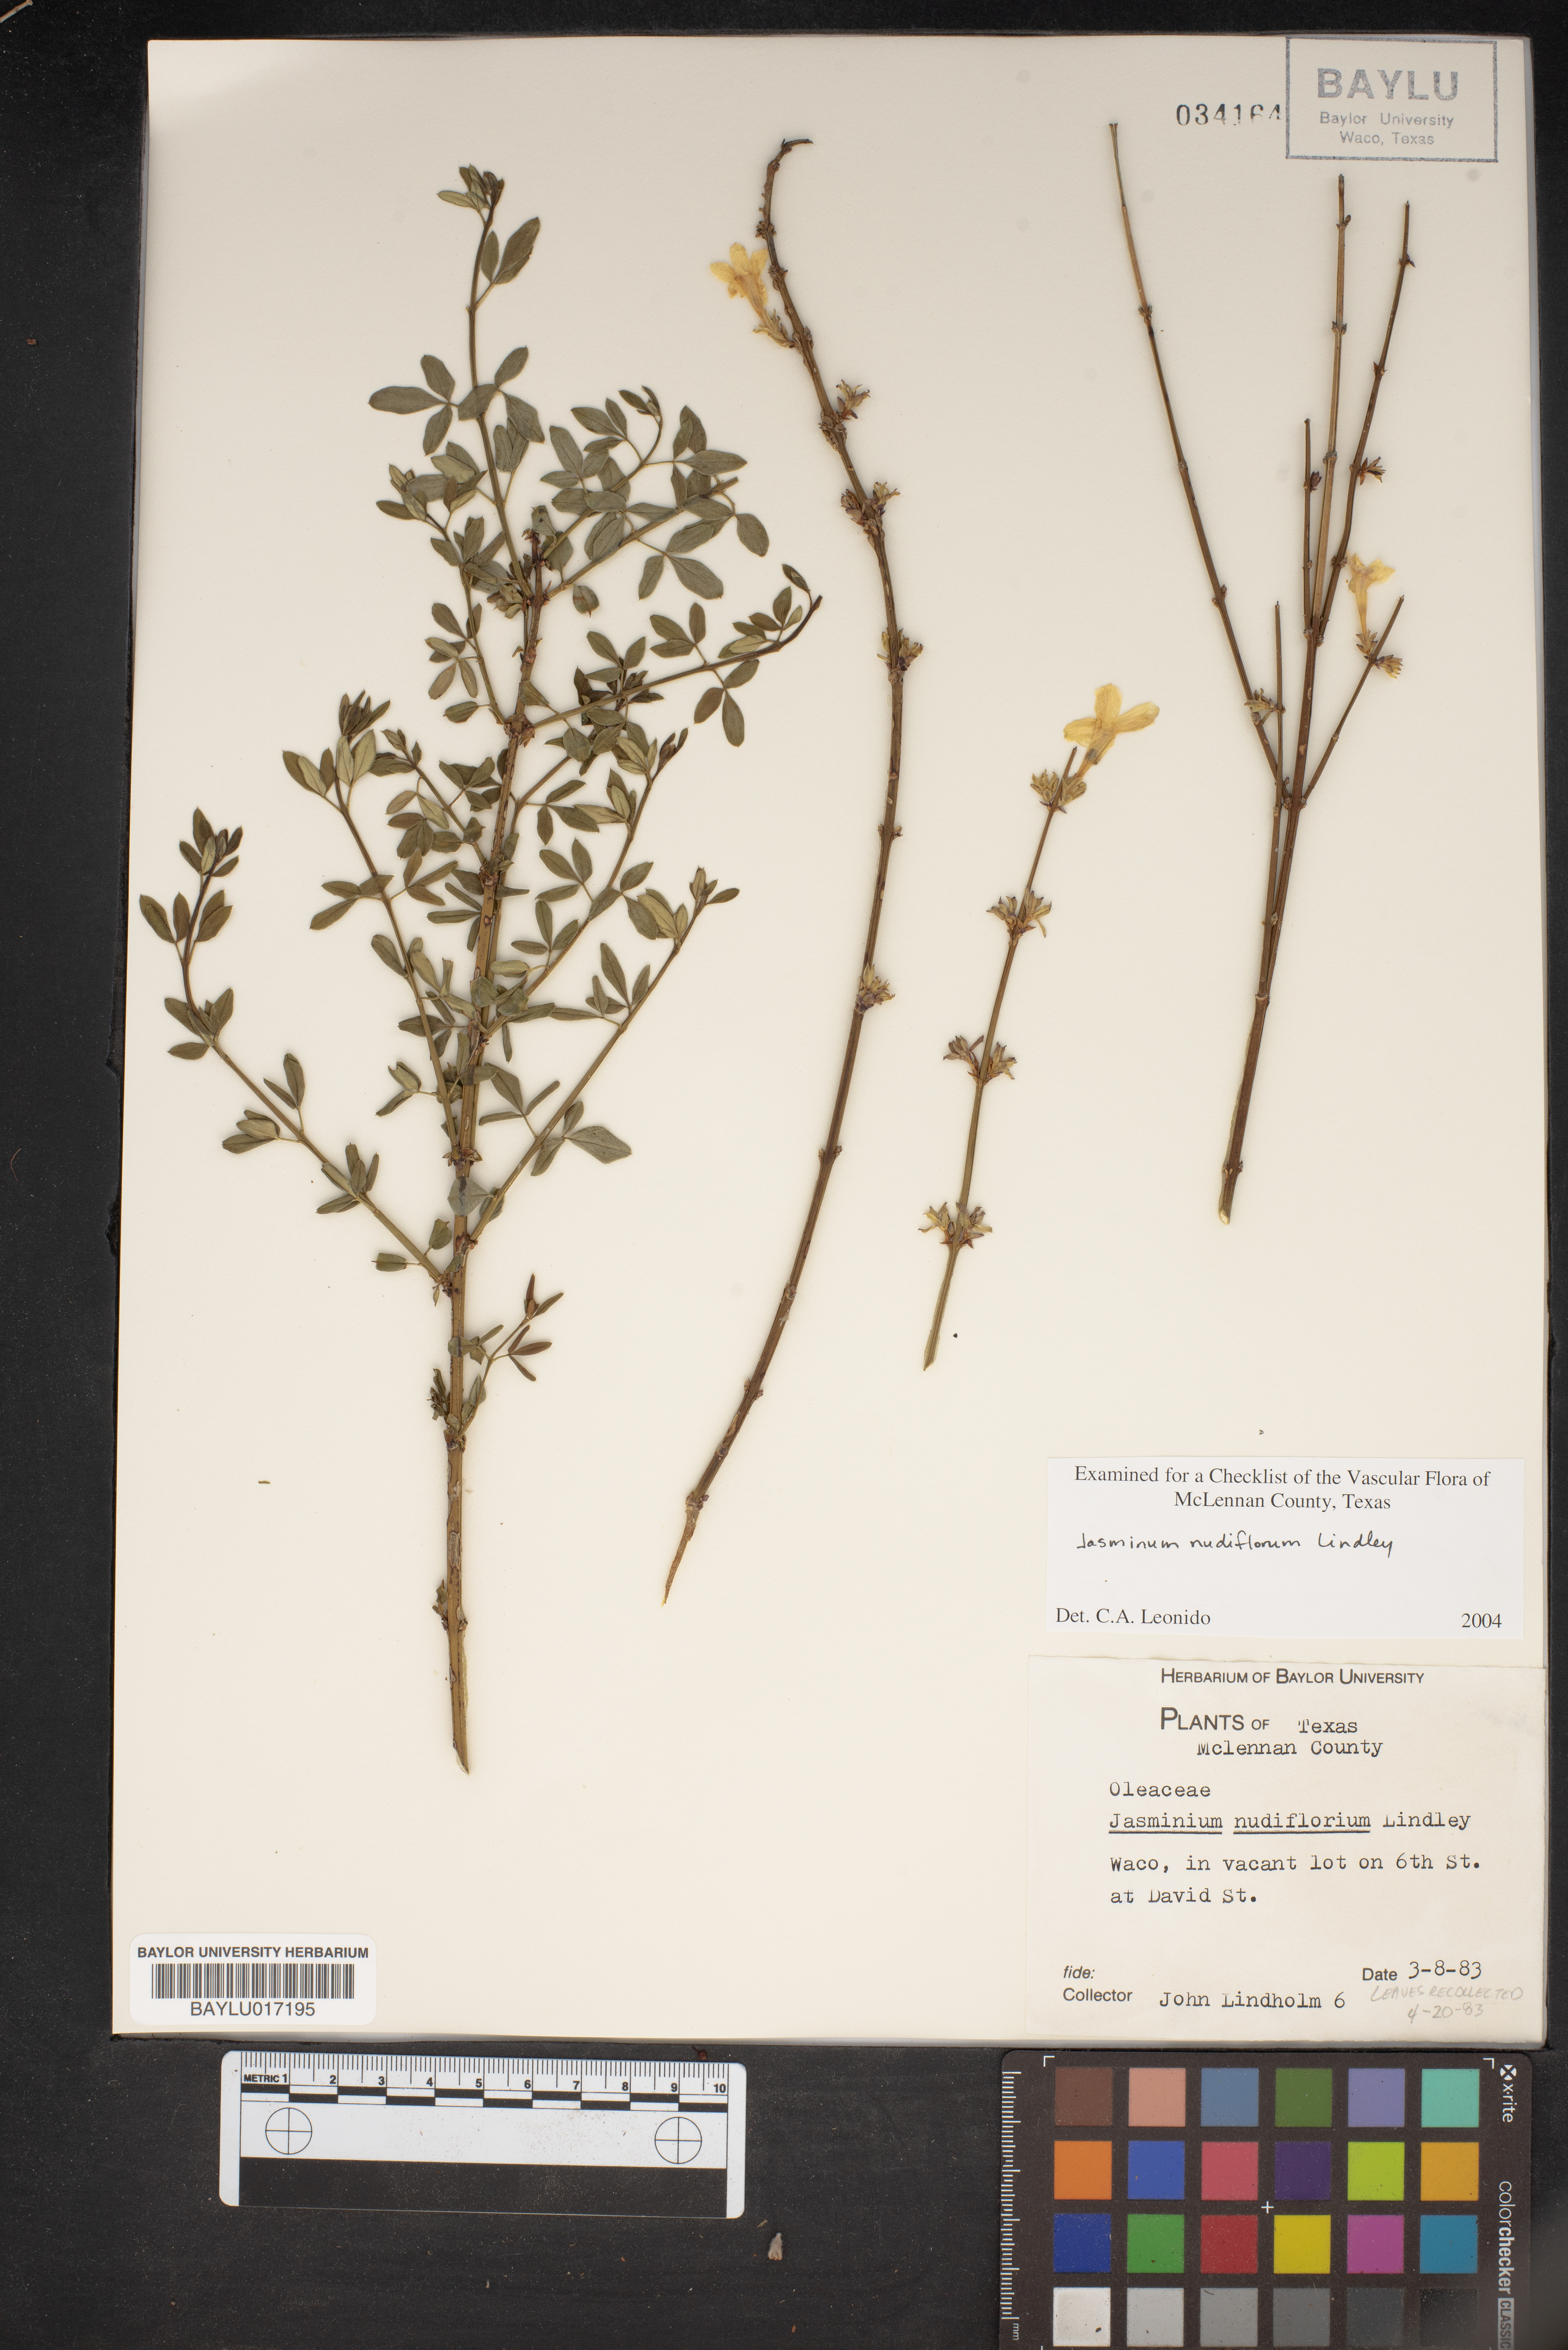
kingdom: Plantae
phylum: Tracheophyta
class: Magnoliopsida
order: Lamiales
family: Oleaceae
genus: Jasminum
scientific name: Jasminum nudiflorum
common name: Winter jasmine
